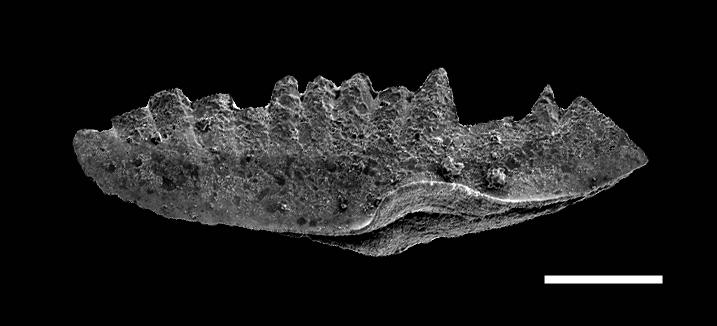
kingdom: Animalia
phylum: Chordata
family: Prioniodontidae
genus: Ozarkodina
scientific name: Ozarkodina
